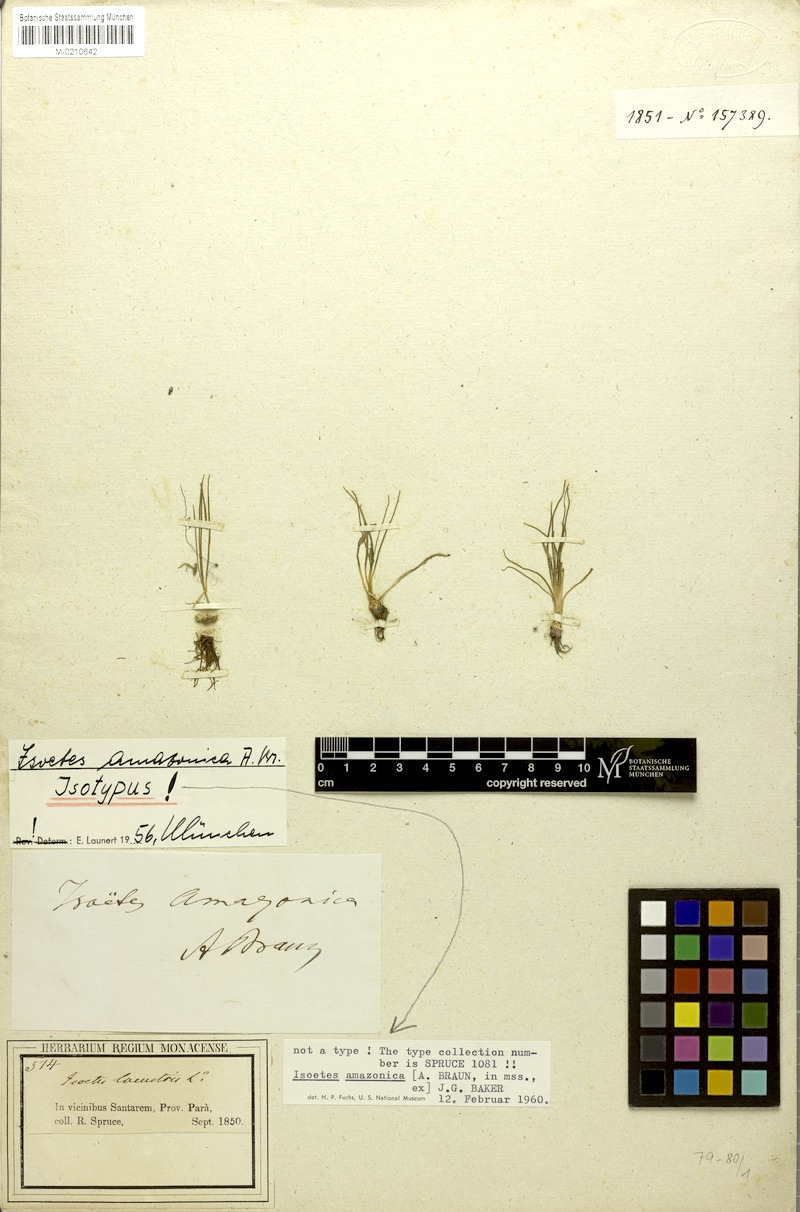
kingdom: Plantae
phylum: Tracheophyta
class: Lycopodiopsida
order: Isoetales
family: Isoetaceae
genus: Isoetes
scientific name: Isoetes amazonica
